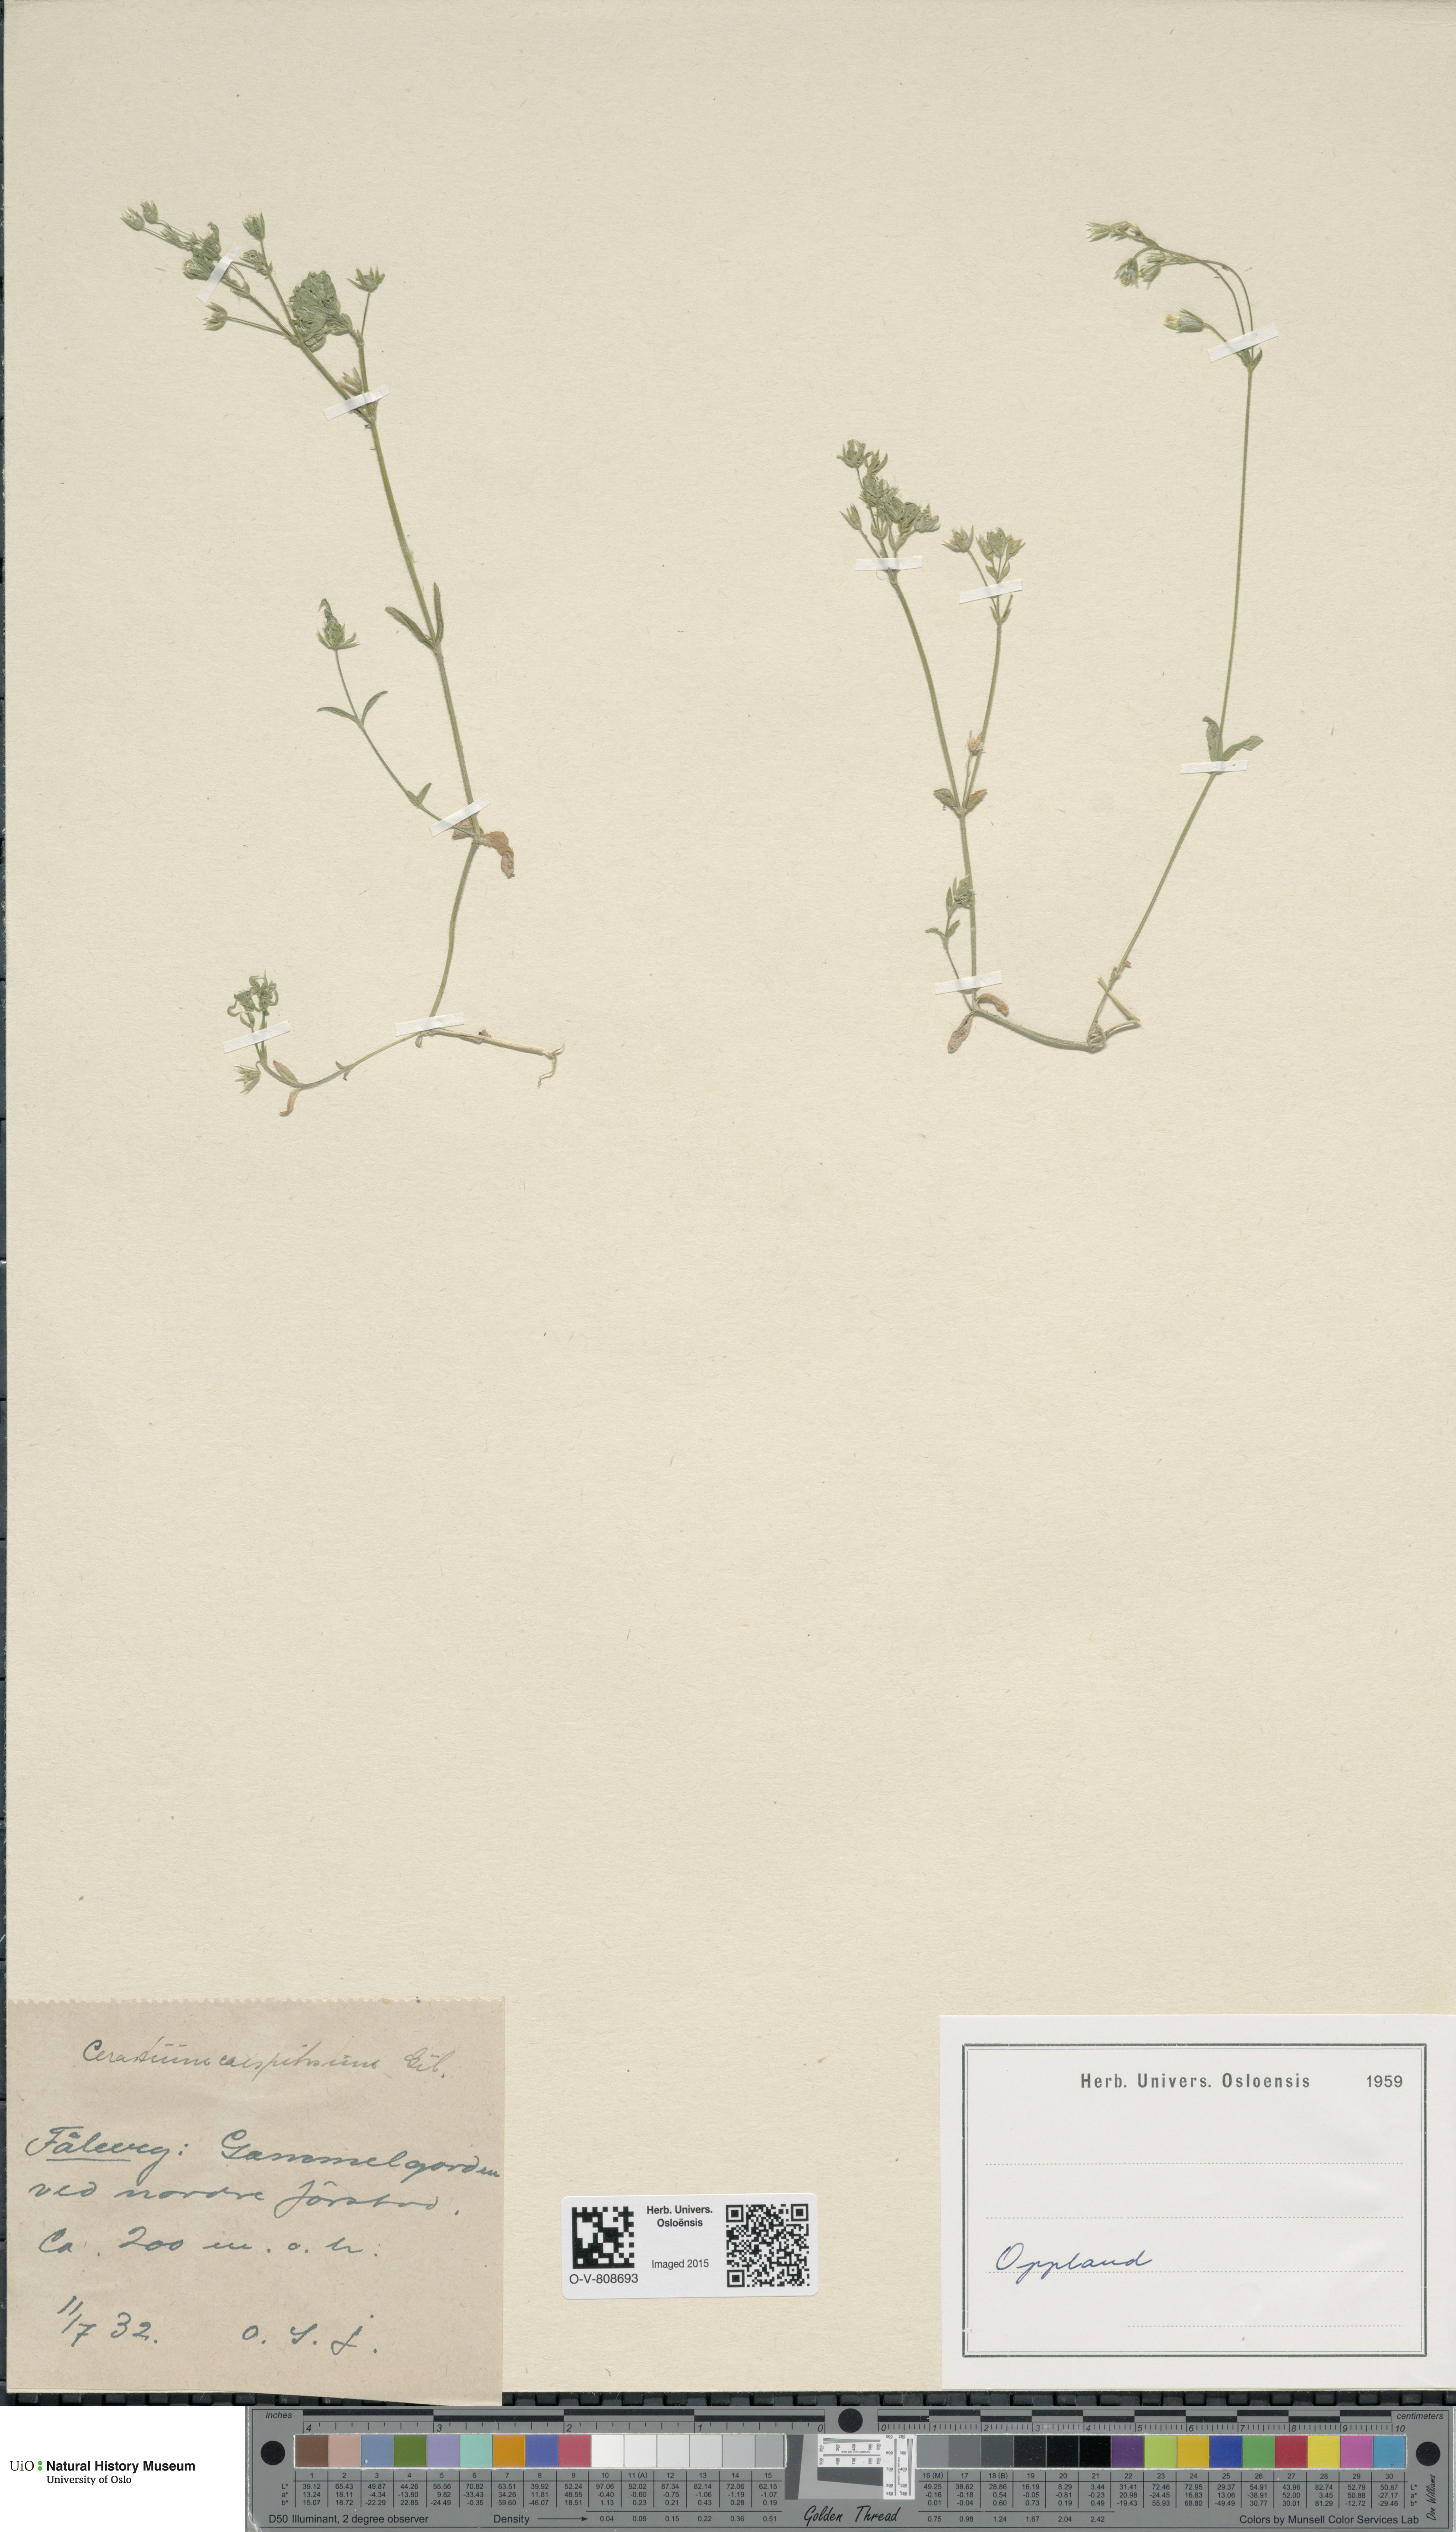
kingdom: Plantae
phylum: Tracheophyta
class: Magnoliopsida
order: Caryophyllales
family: Caryophyllaceae
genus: Cerastium
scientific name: Cerastium holosteoides
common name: Big chickweed
